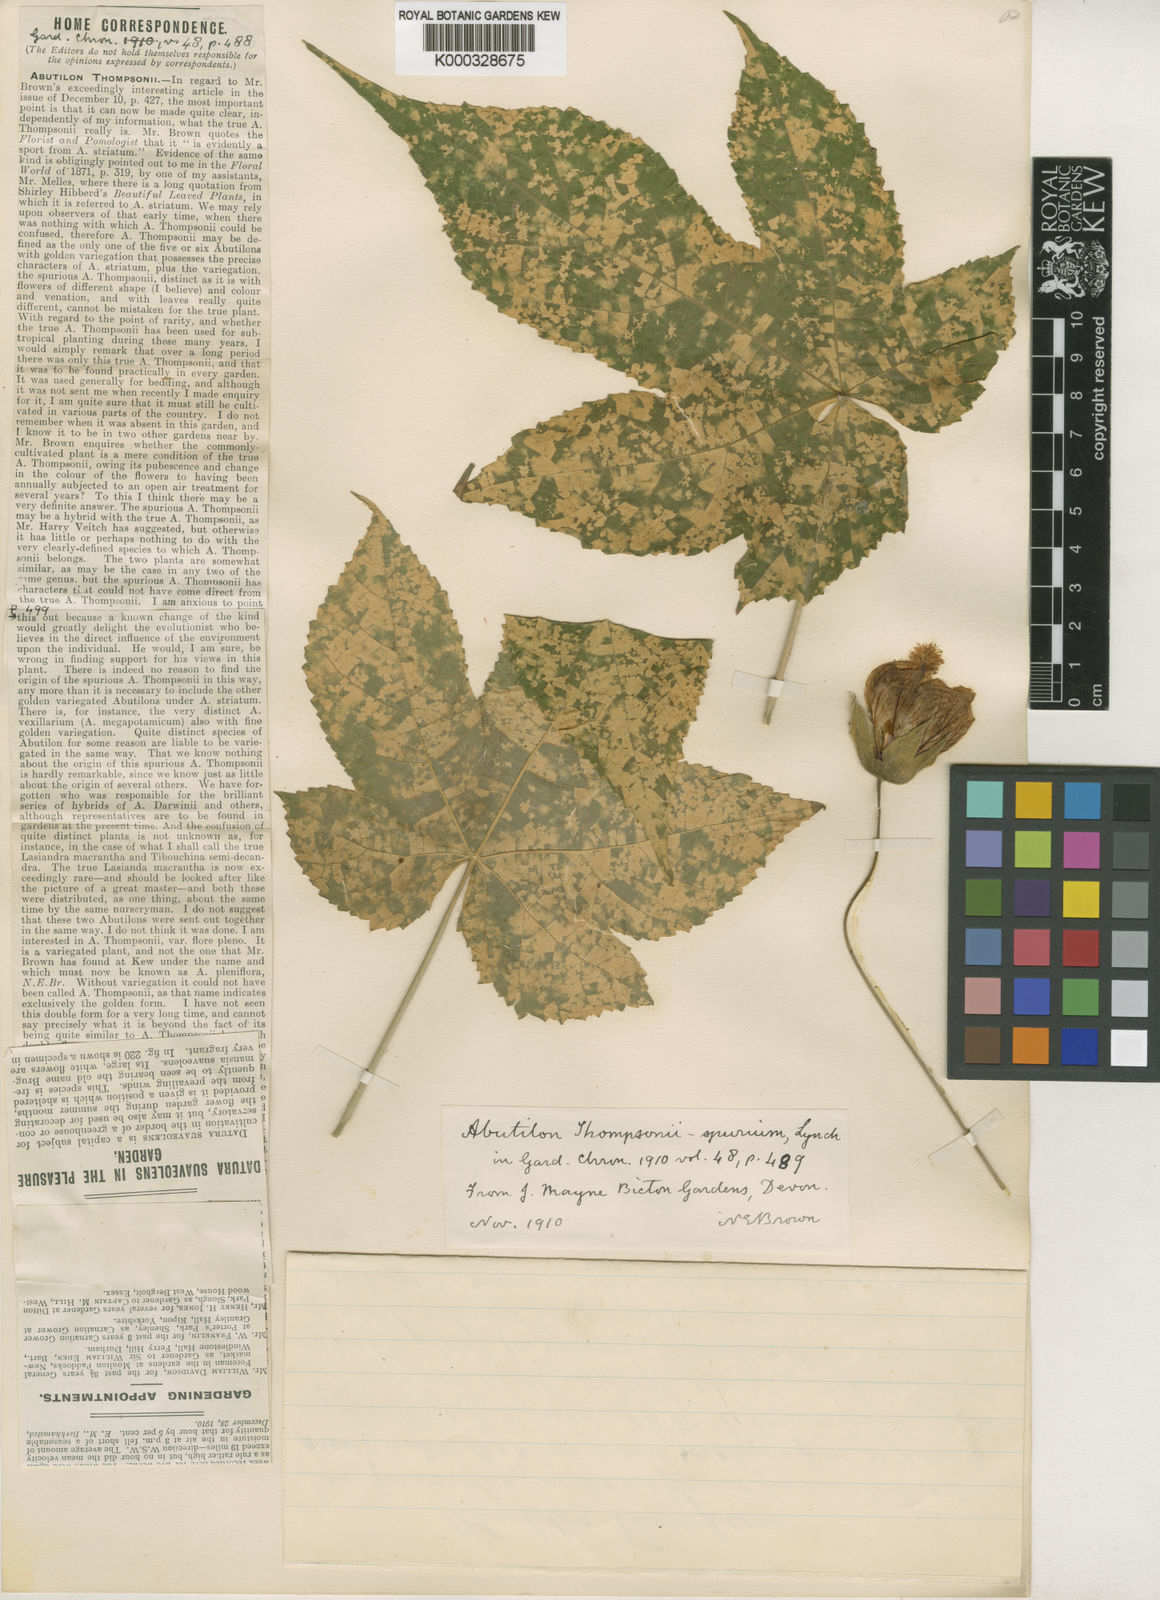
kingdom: Plantae
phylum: Tracheophyta
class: Magnoliopsida
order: Malvales
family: Malvaceae
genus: Abutilon
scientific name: Abutilon
